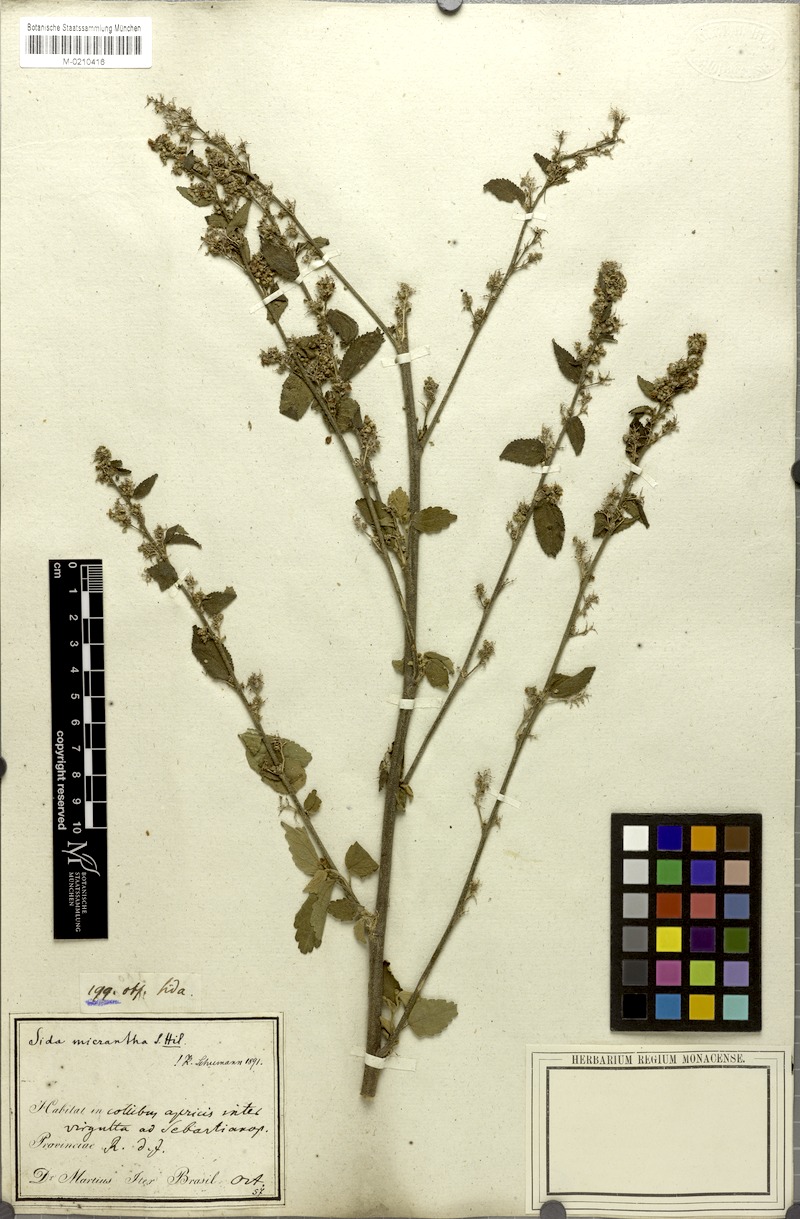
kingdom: Plantae
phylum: Tracheophyta
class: Magnoliopsida
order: Malvales
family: Malvaceae
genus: Sidastrum
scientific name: Sidastrum micranthum
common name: Dainty sandmallow
